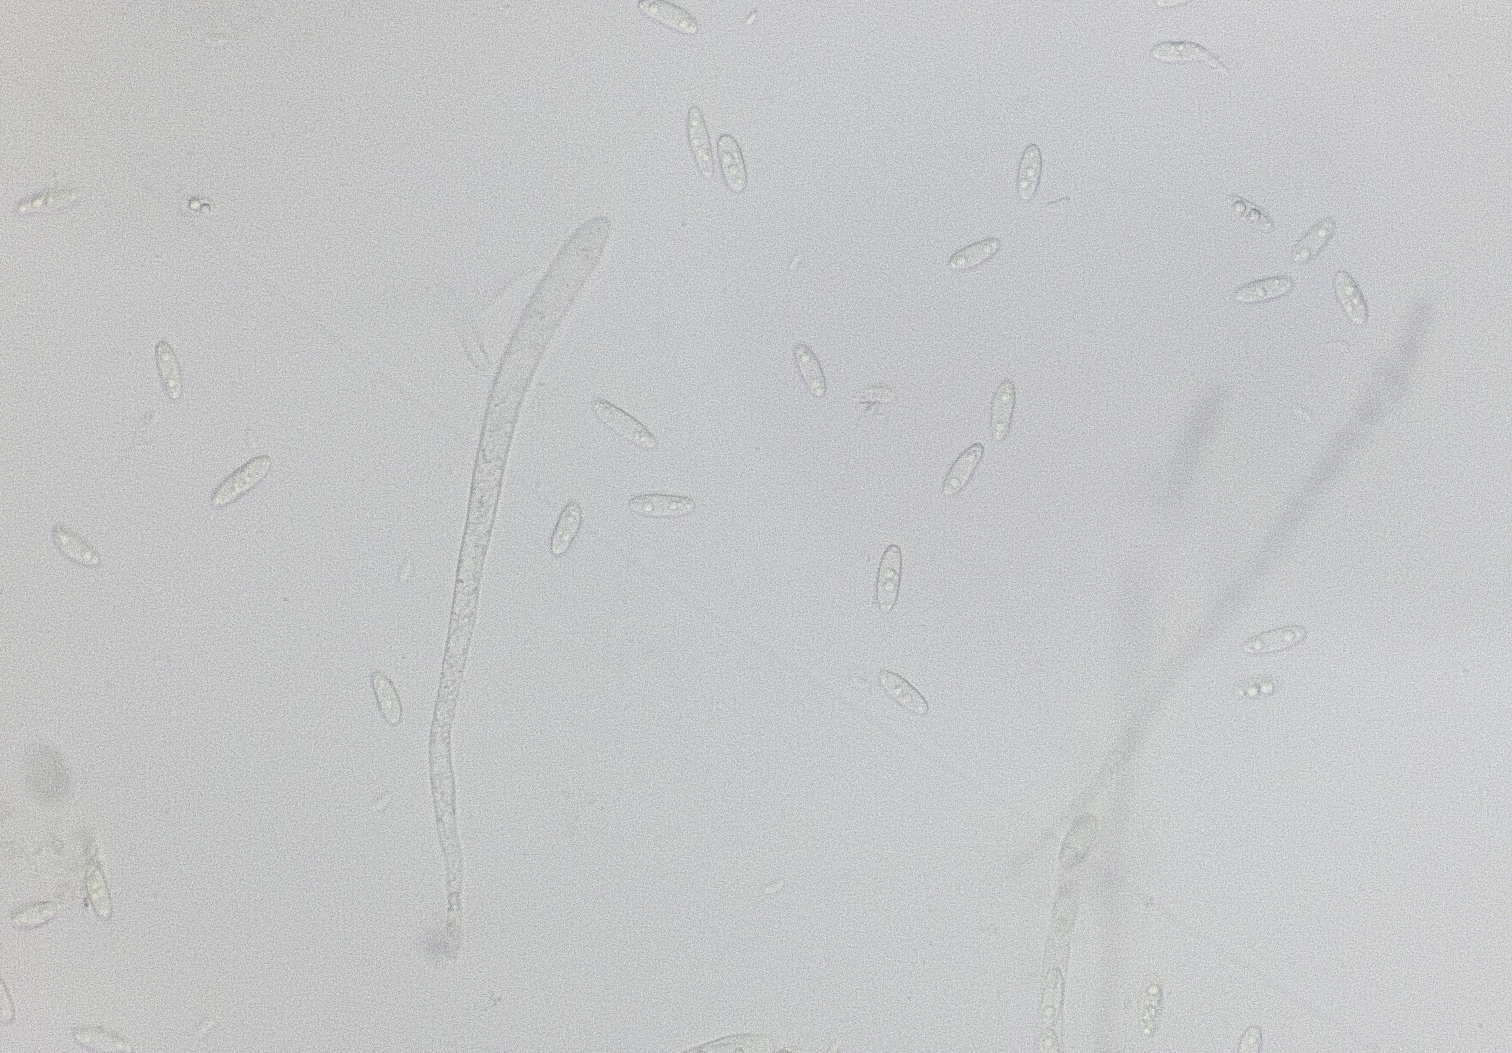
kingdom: Fungi
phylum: Ascomycota
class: Leotiomycetes
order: Helotiales
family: Pezizellaceae
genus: Calycina
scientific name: Calycina citrina
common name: almindelig gulskive
